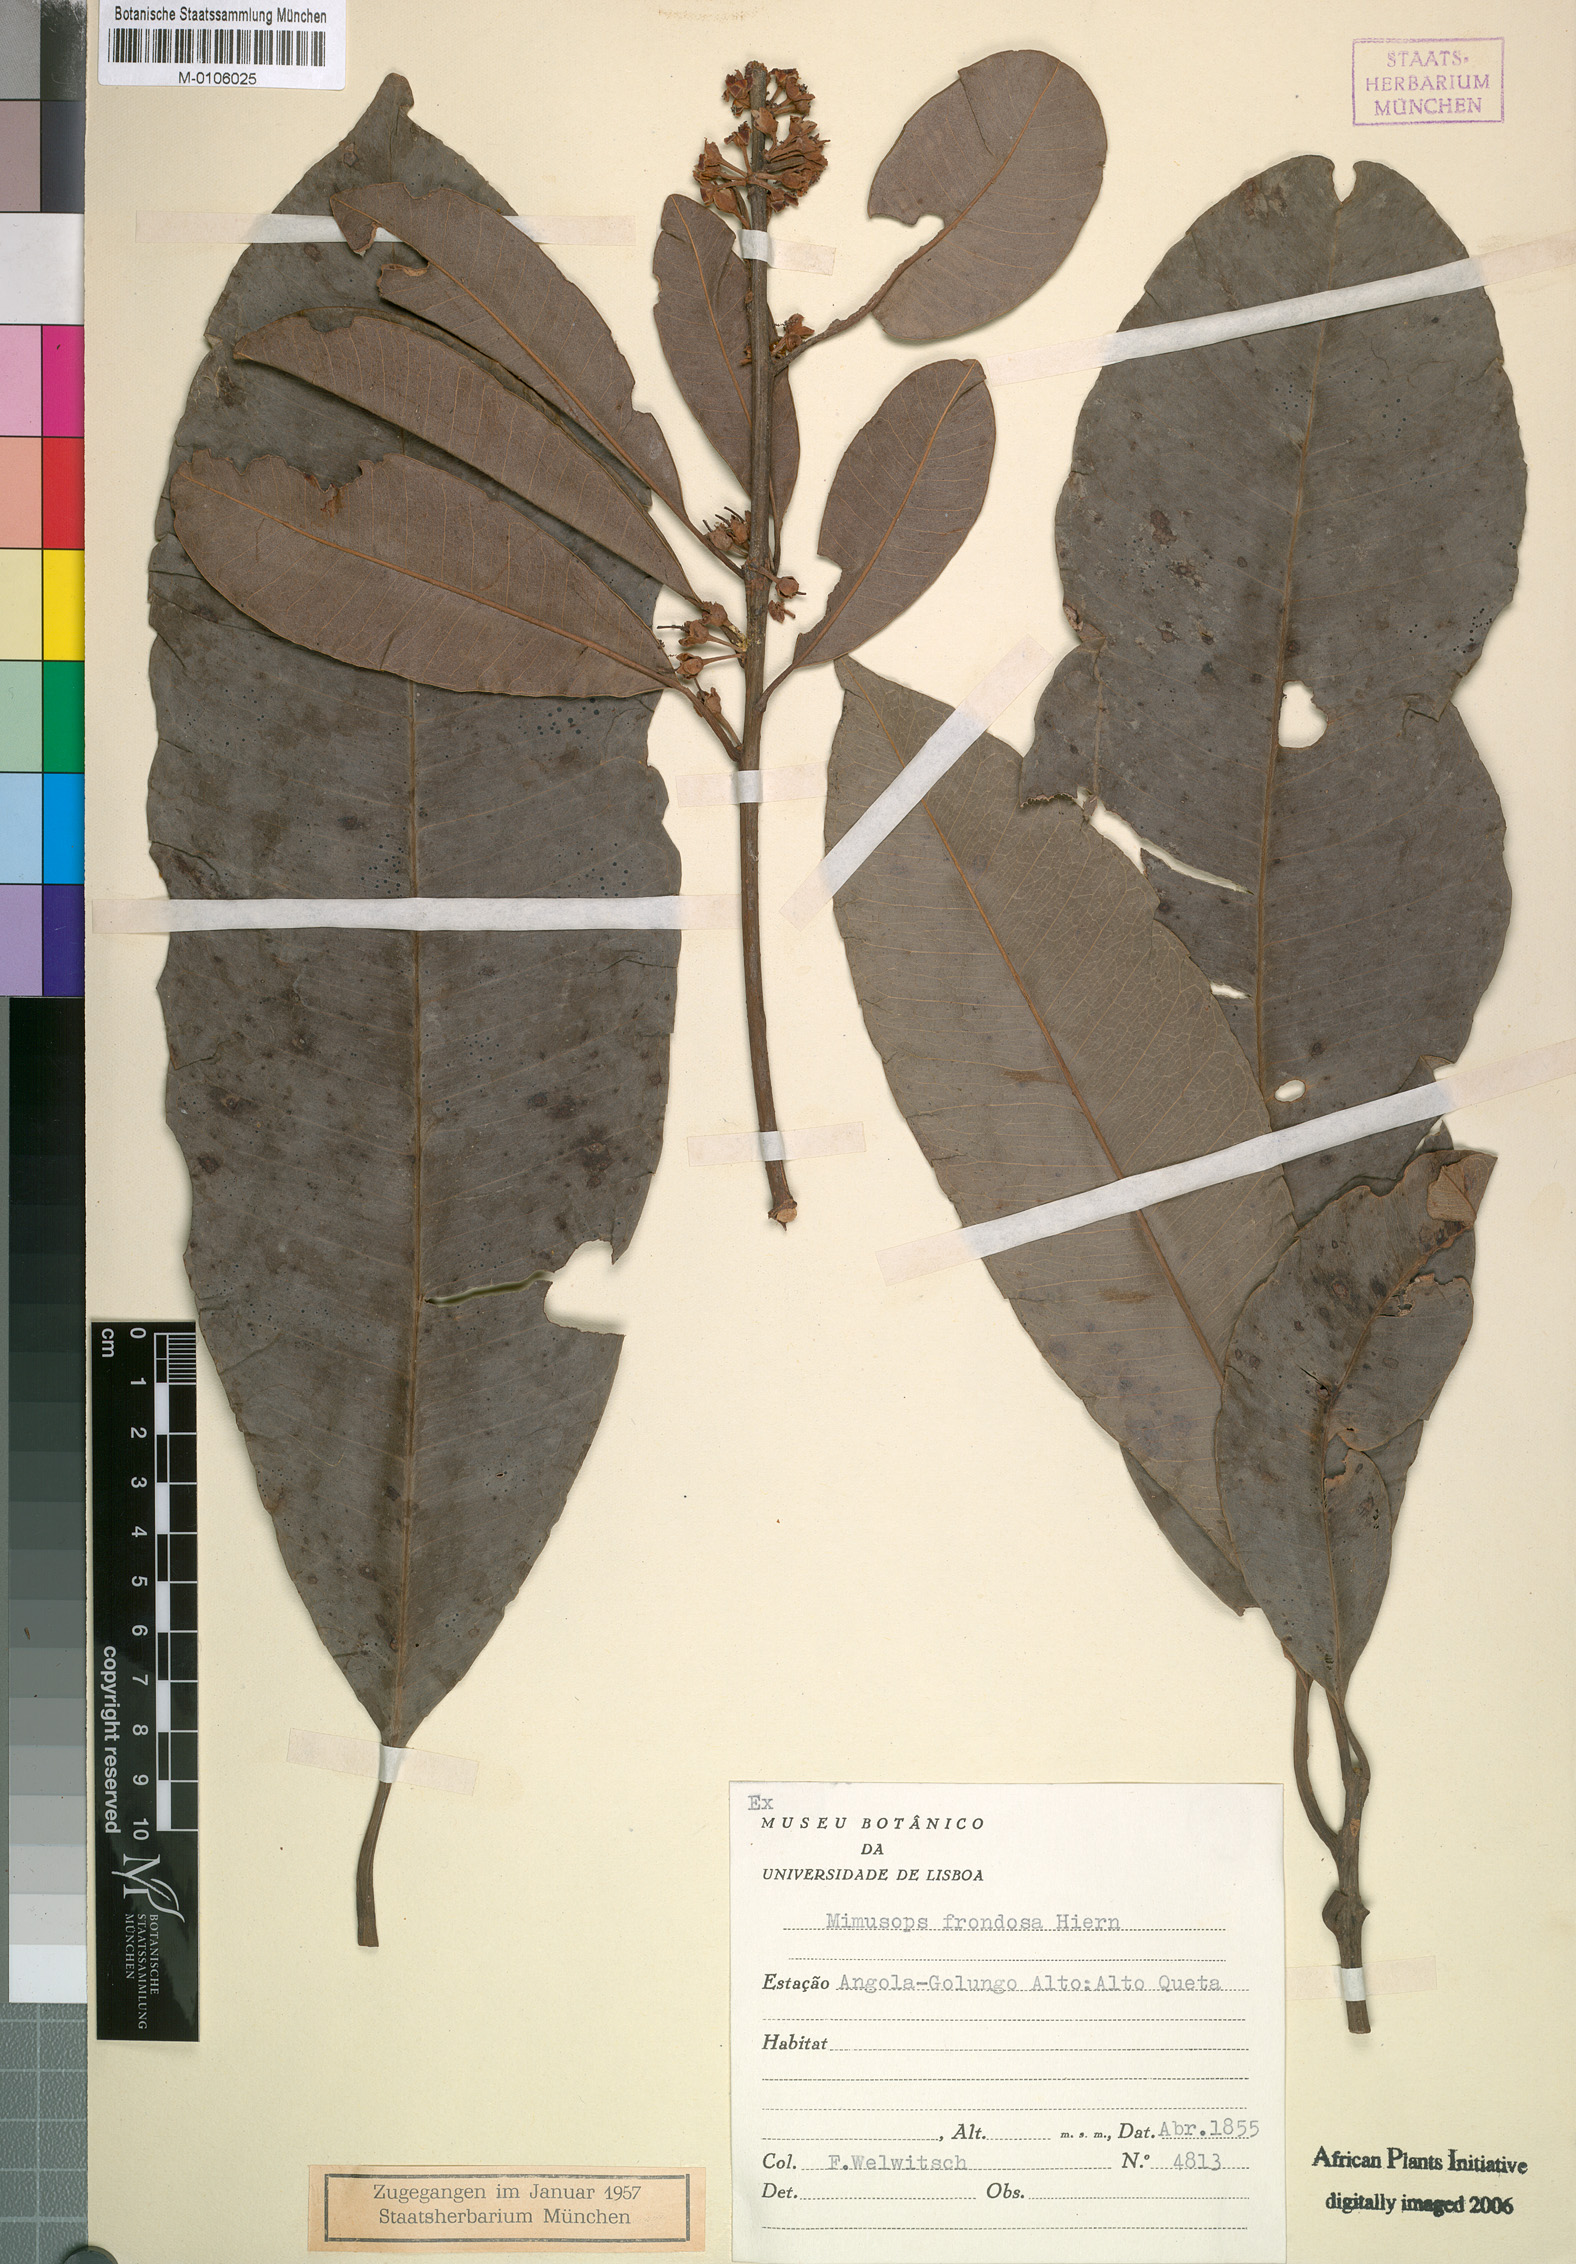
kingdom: Plantae
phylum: Tracheophyta
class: Magnoliopsida
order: Ericales
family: Sapotaceae
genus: Manilkara
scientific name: Manilkara frondosa
